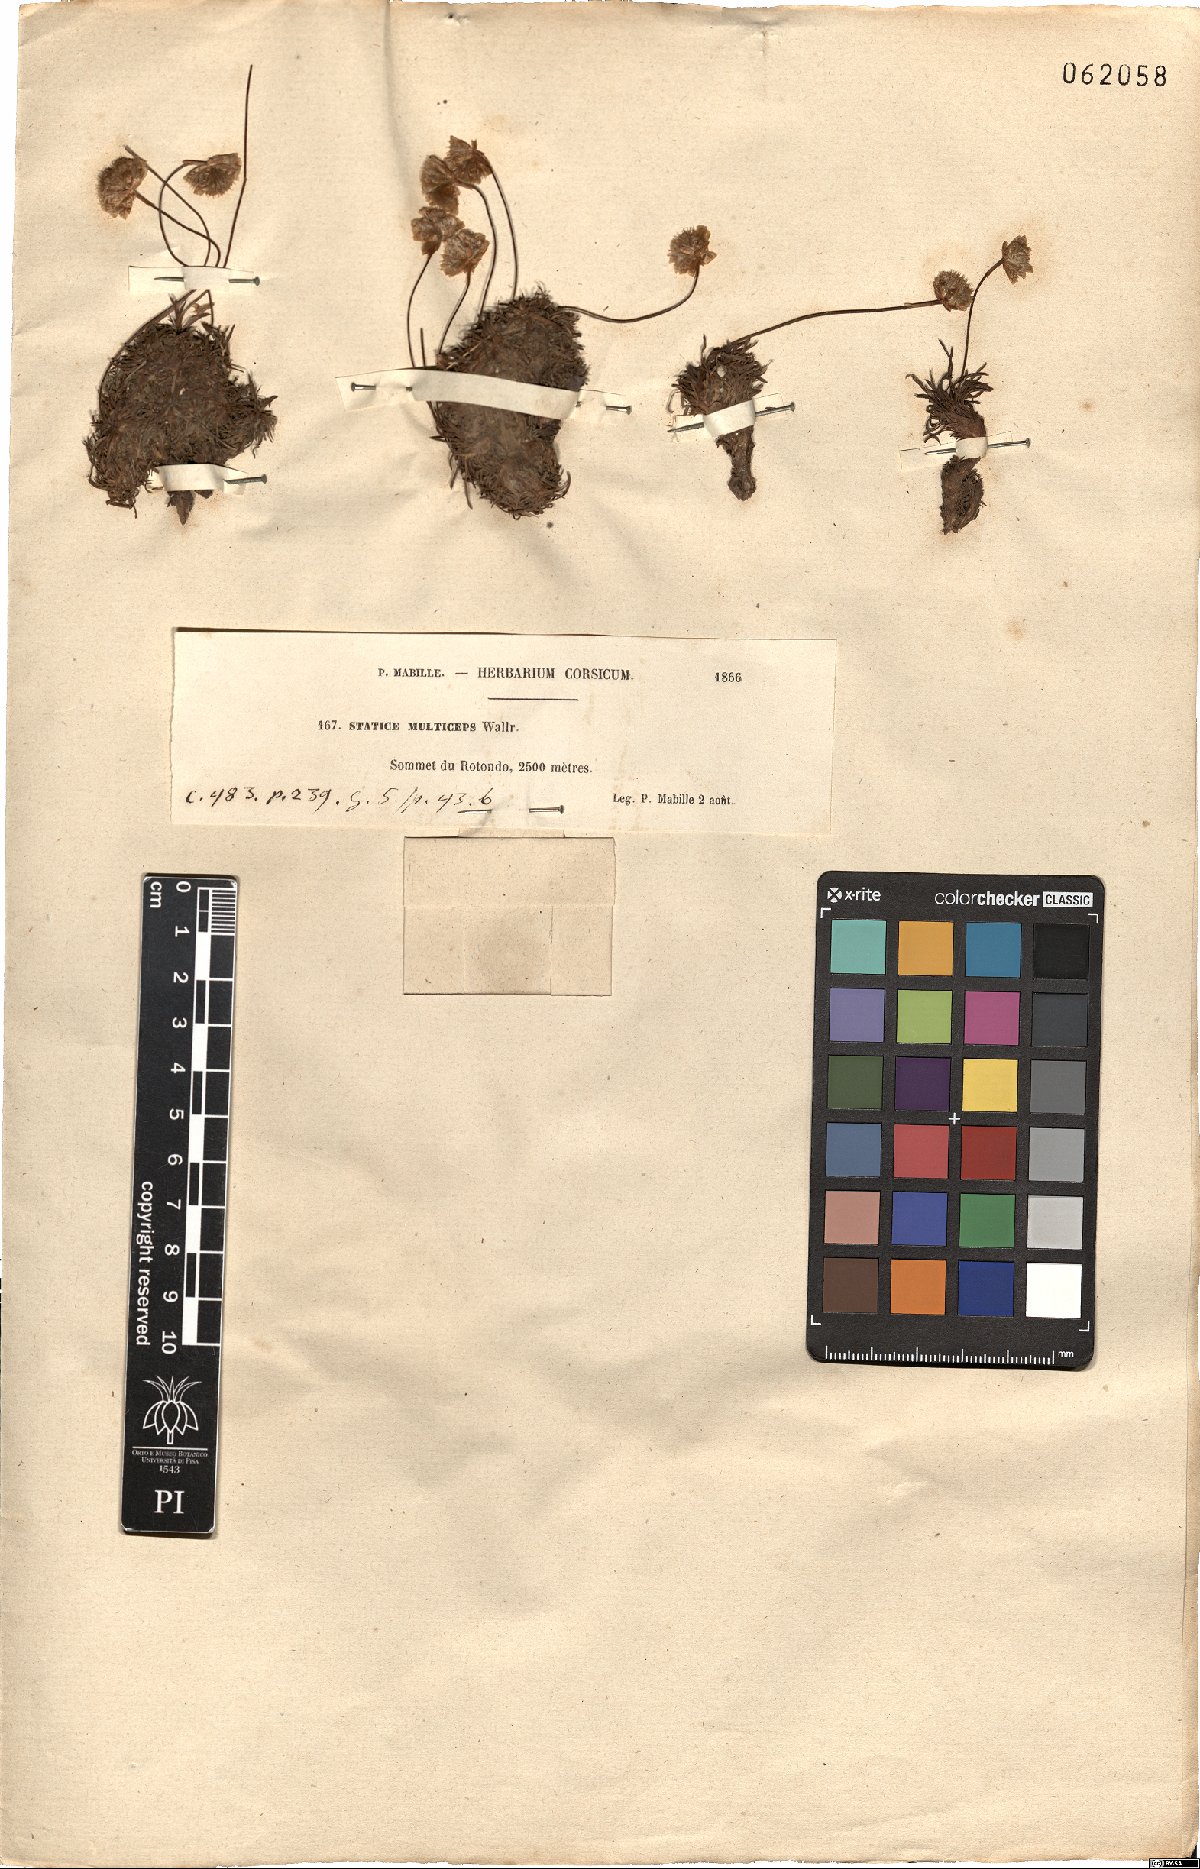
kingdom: Plantae
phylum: Tracheophyta
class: Magnoliopsida
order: Caryophyllales
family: Plumbaginaceae
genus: Armeria
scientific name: Armeria multiceps
